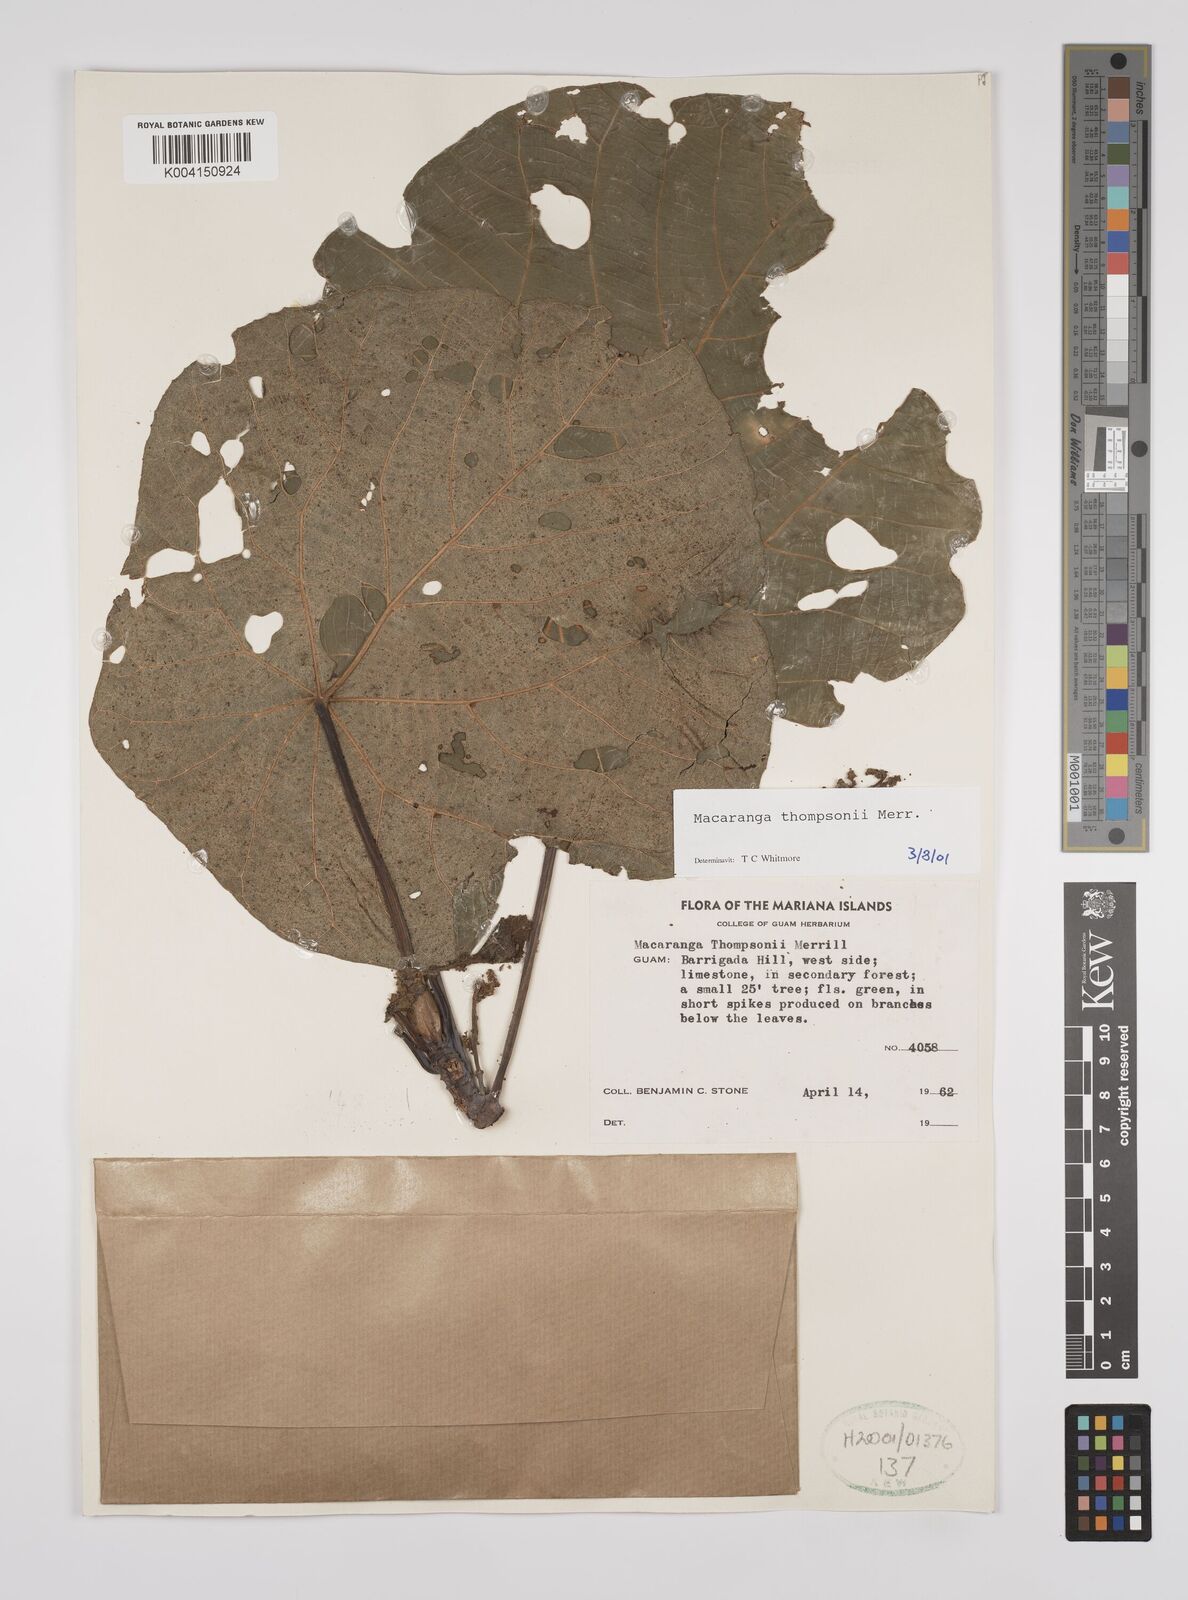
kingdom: Plantae
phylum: Tracheophyta
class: Magnoliopsida
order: Malpighiales
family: Euphorbiaceae
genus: Macaranga
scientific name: Macaranga thompsonii
